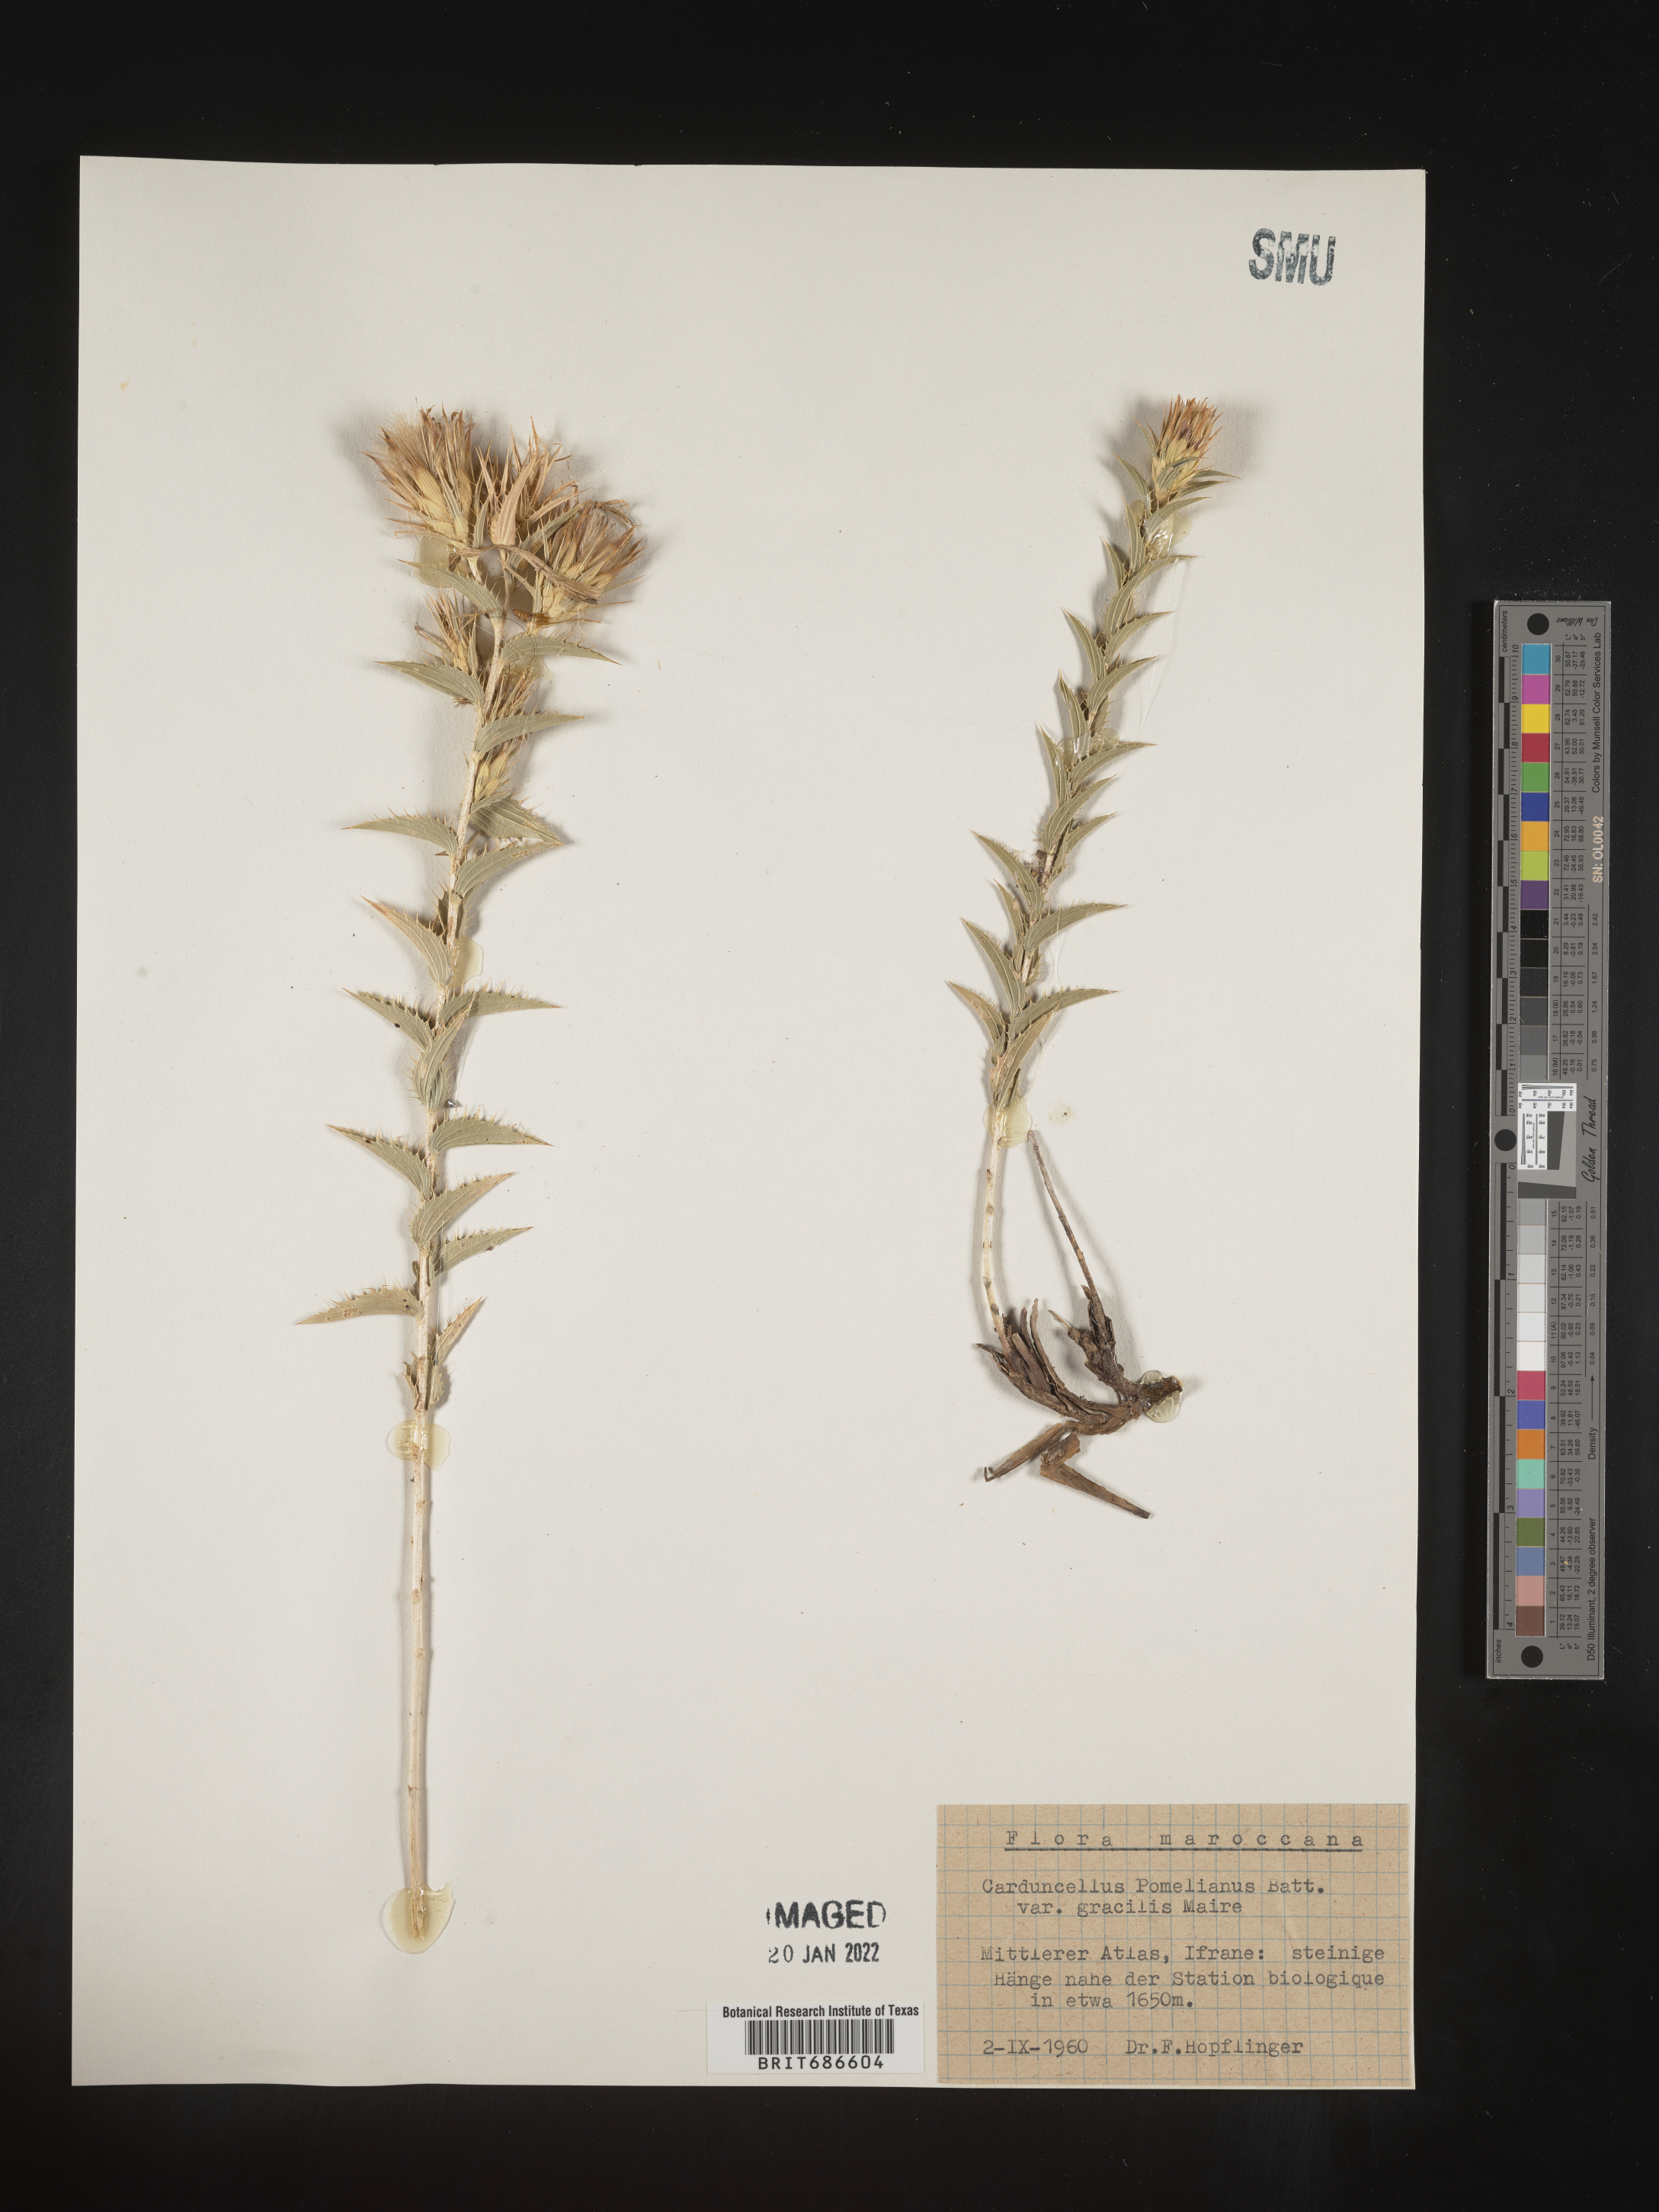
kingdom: Plantae
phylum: Tracheophyta
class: Magnoliopsida
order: Asterales
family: Asteraceae
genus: Carduncellus
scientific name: Carduncellus
